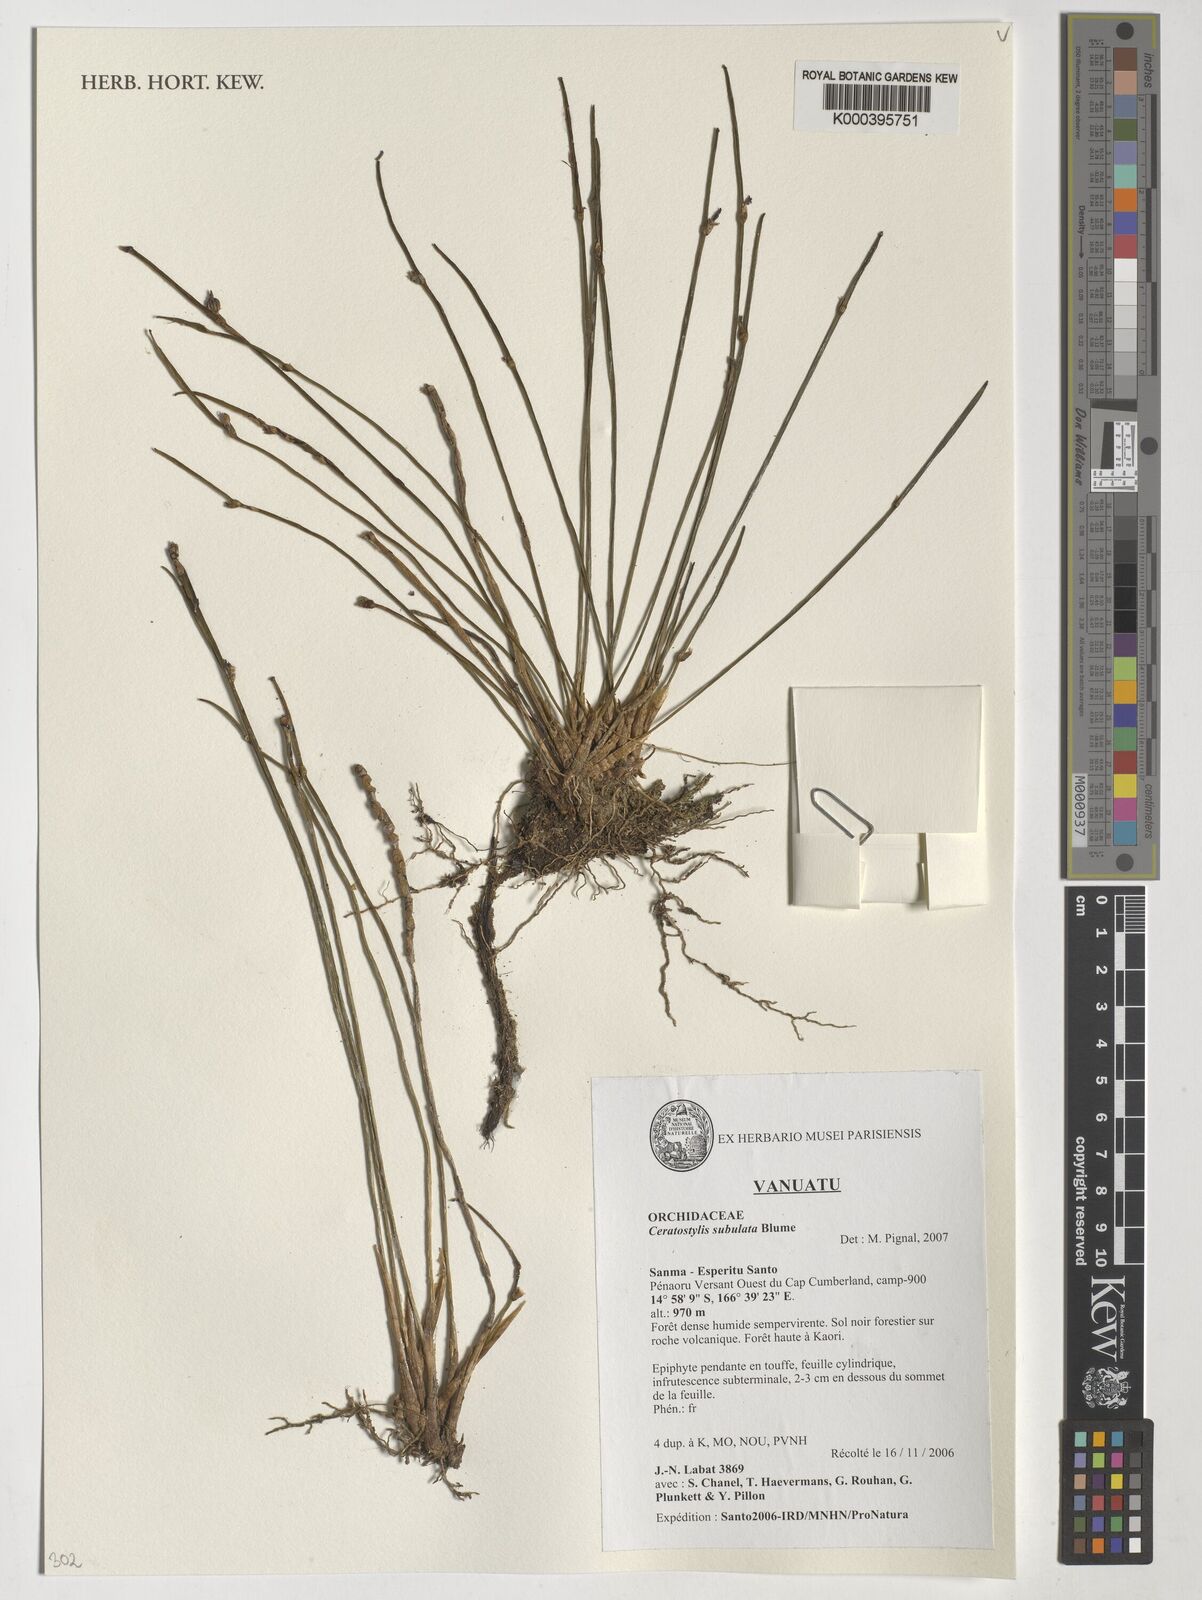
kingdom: Plantae
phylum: Tracheophyta
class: Liliopsida
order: Asparagales
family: Orchidaceae
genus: Ceratostylis
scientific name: Ceratostylis subulata
